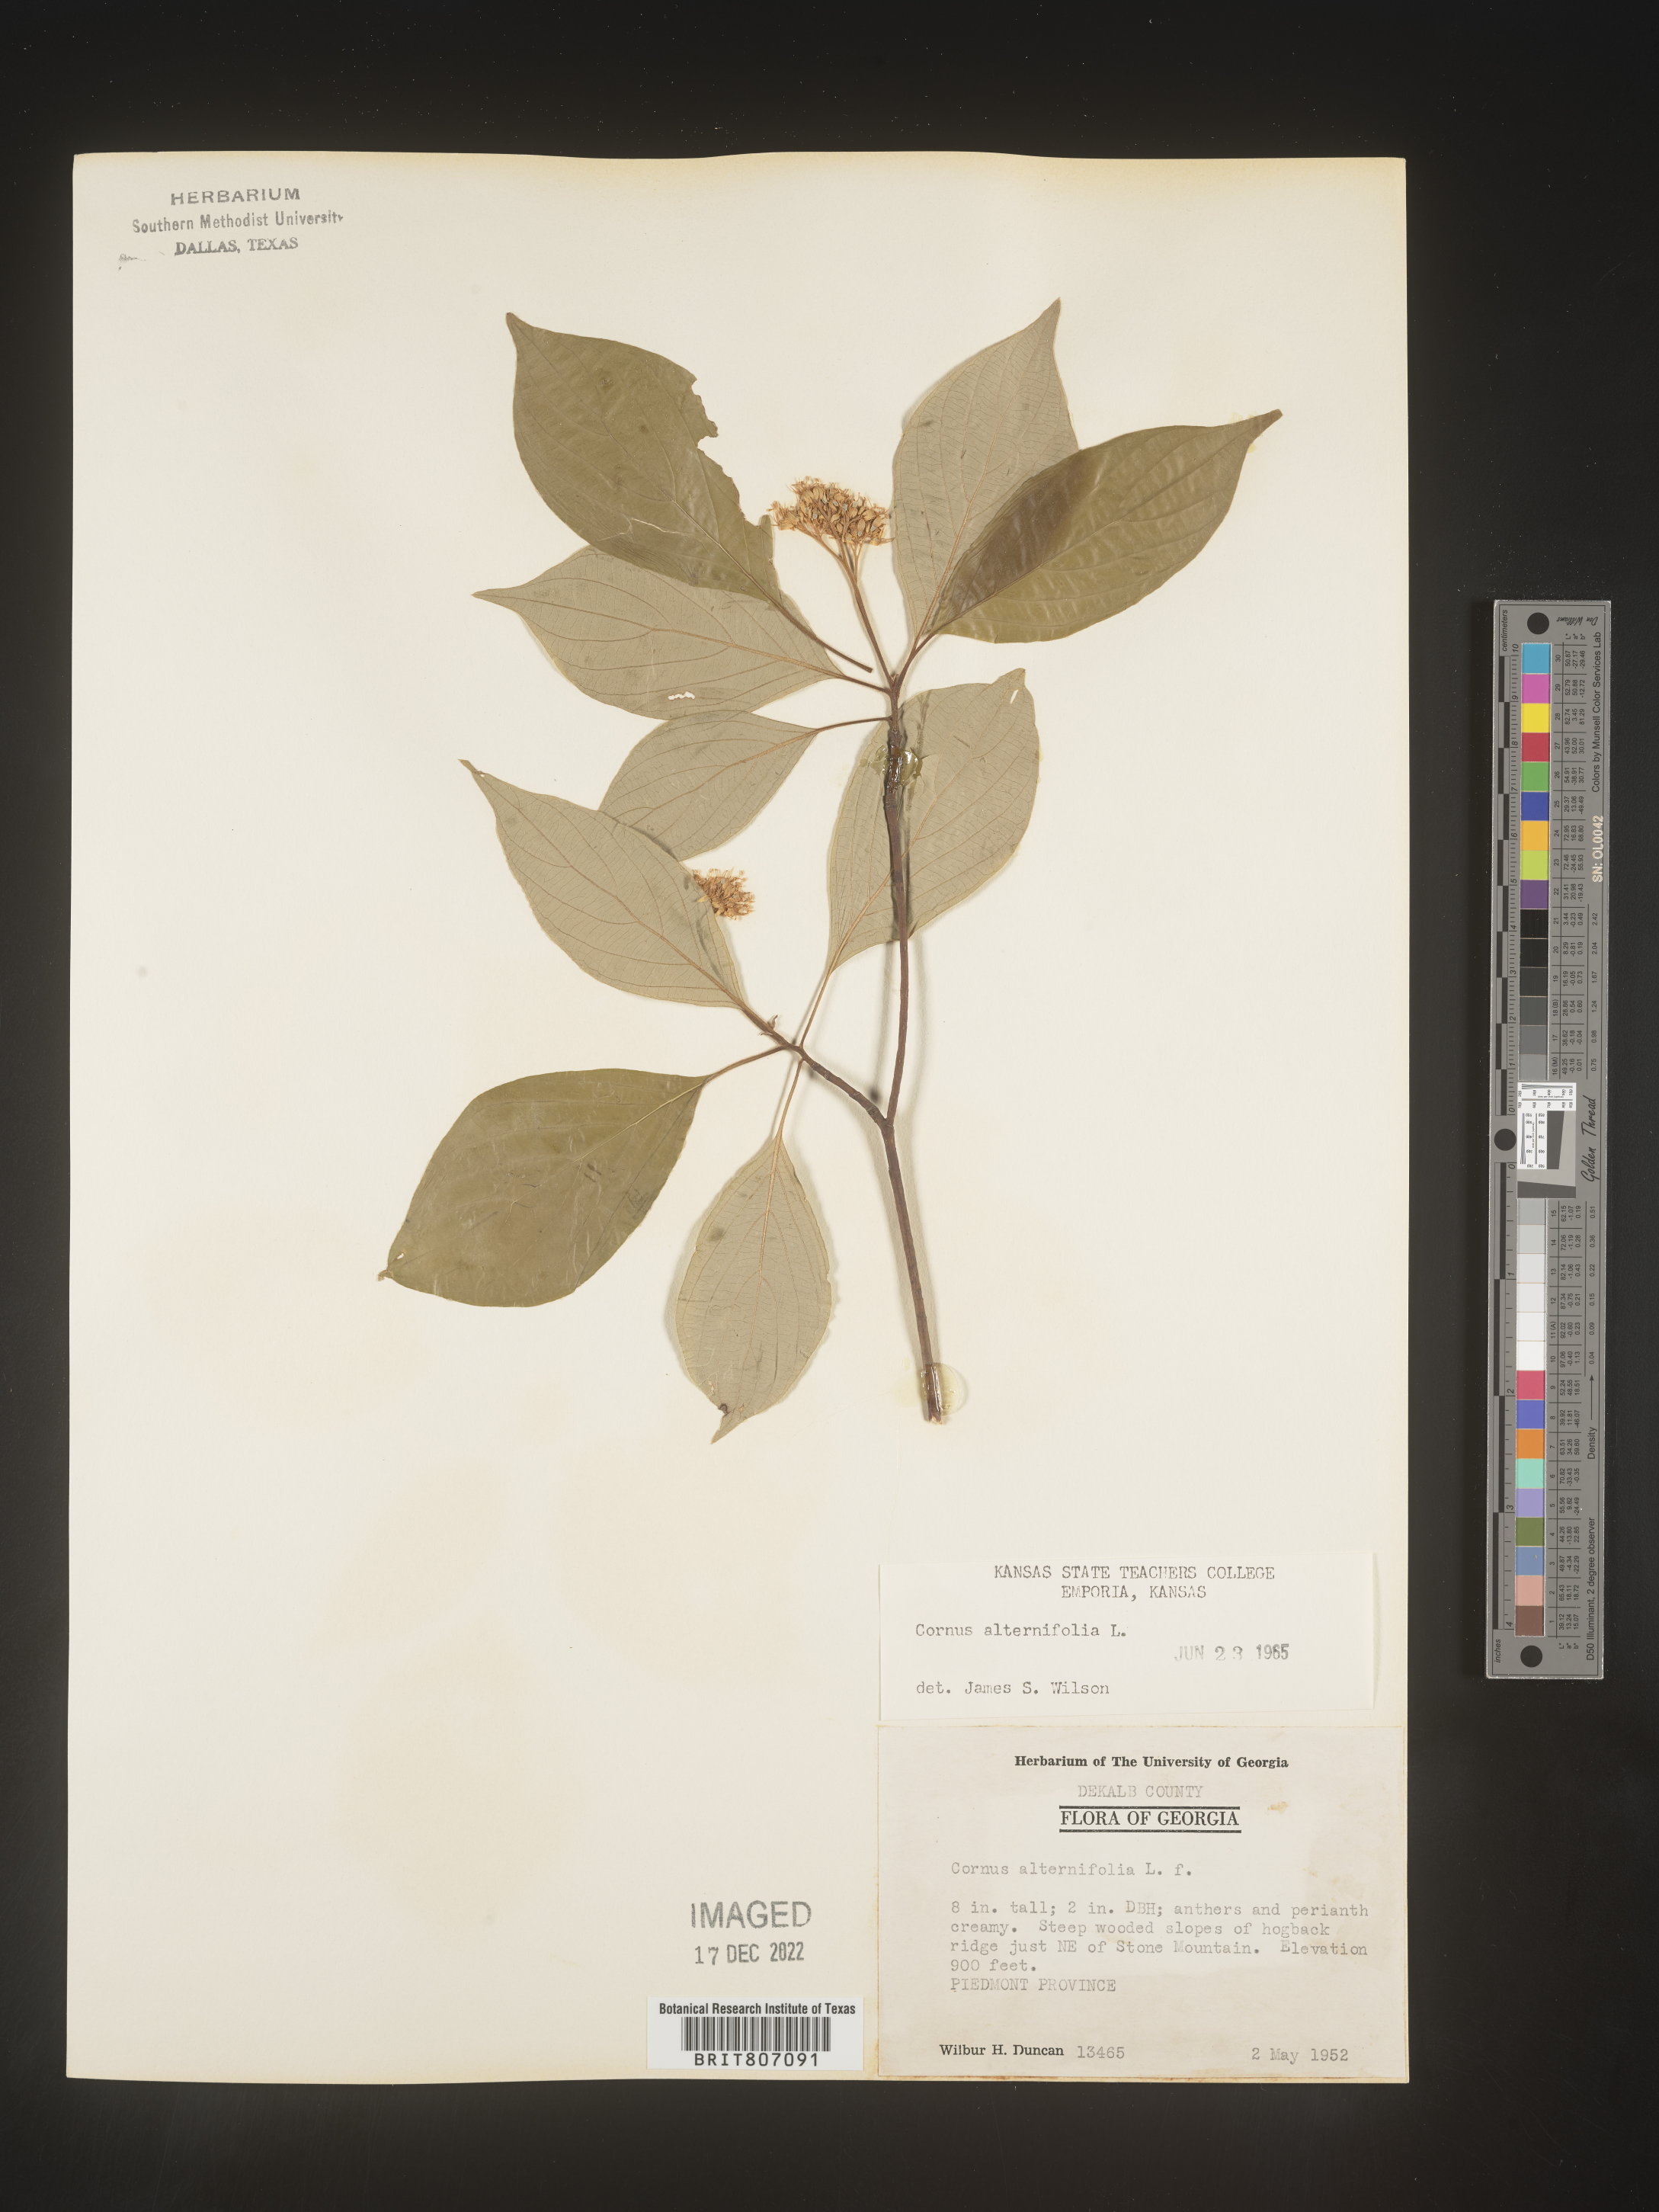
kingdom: Plantae
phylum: Tracheophyta
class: Magnoliopsida
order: Cornales
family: Cornaceae
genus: Cornus
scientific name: Cornus alternifolia
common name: Pagoda dogwood
